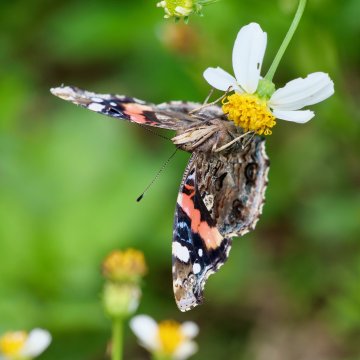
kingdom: Animalia
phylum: Arthropoda
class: Insecta
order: Lepidoptera
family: Nymphalidae
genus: Vanessa
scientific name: Vanessa atalanta
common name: Red Admiral
